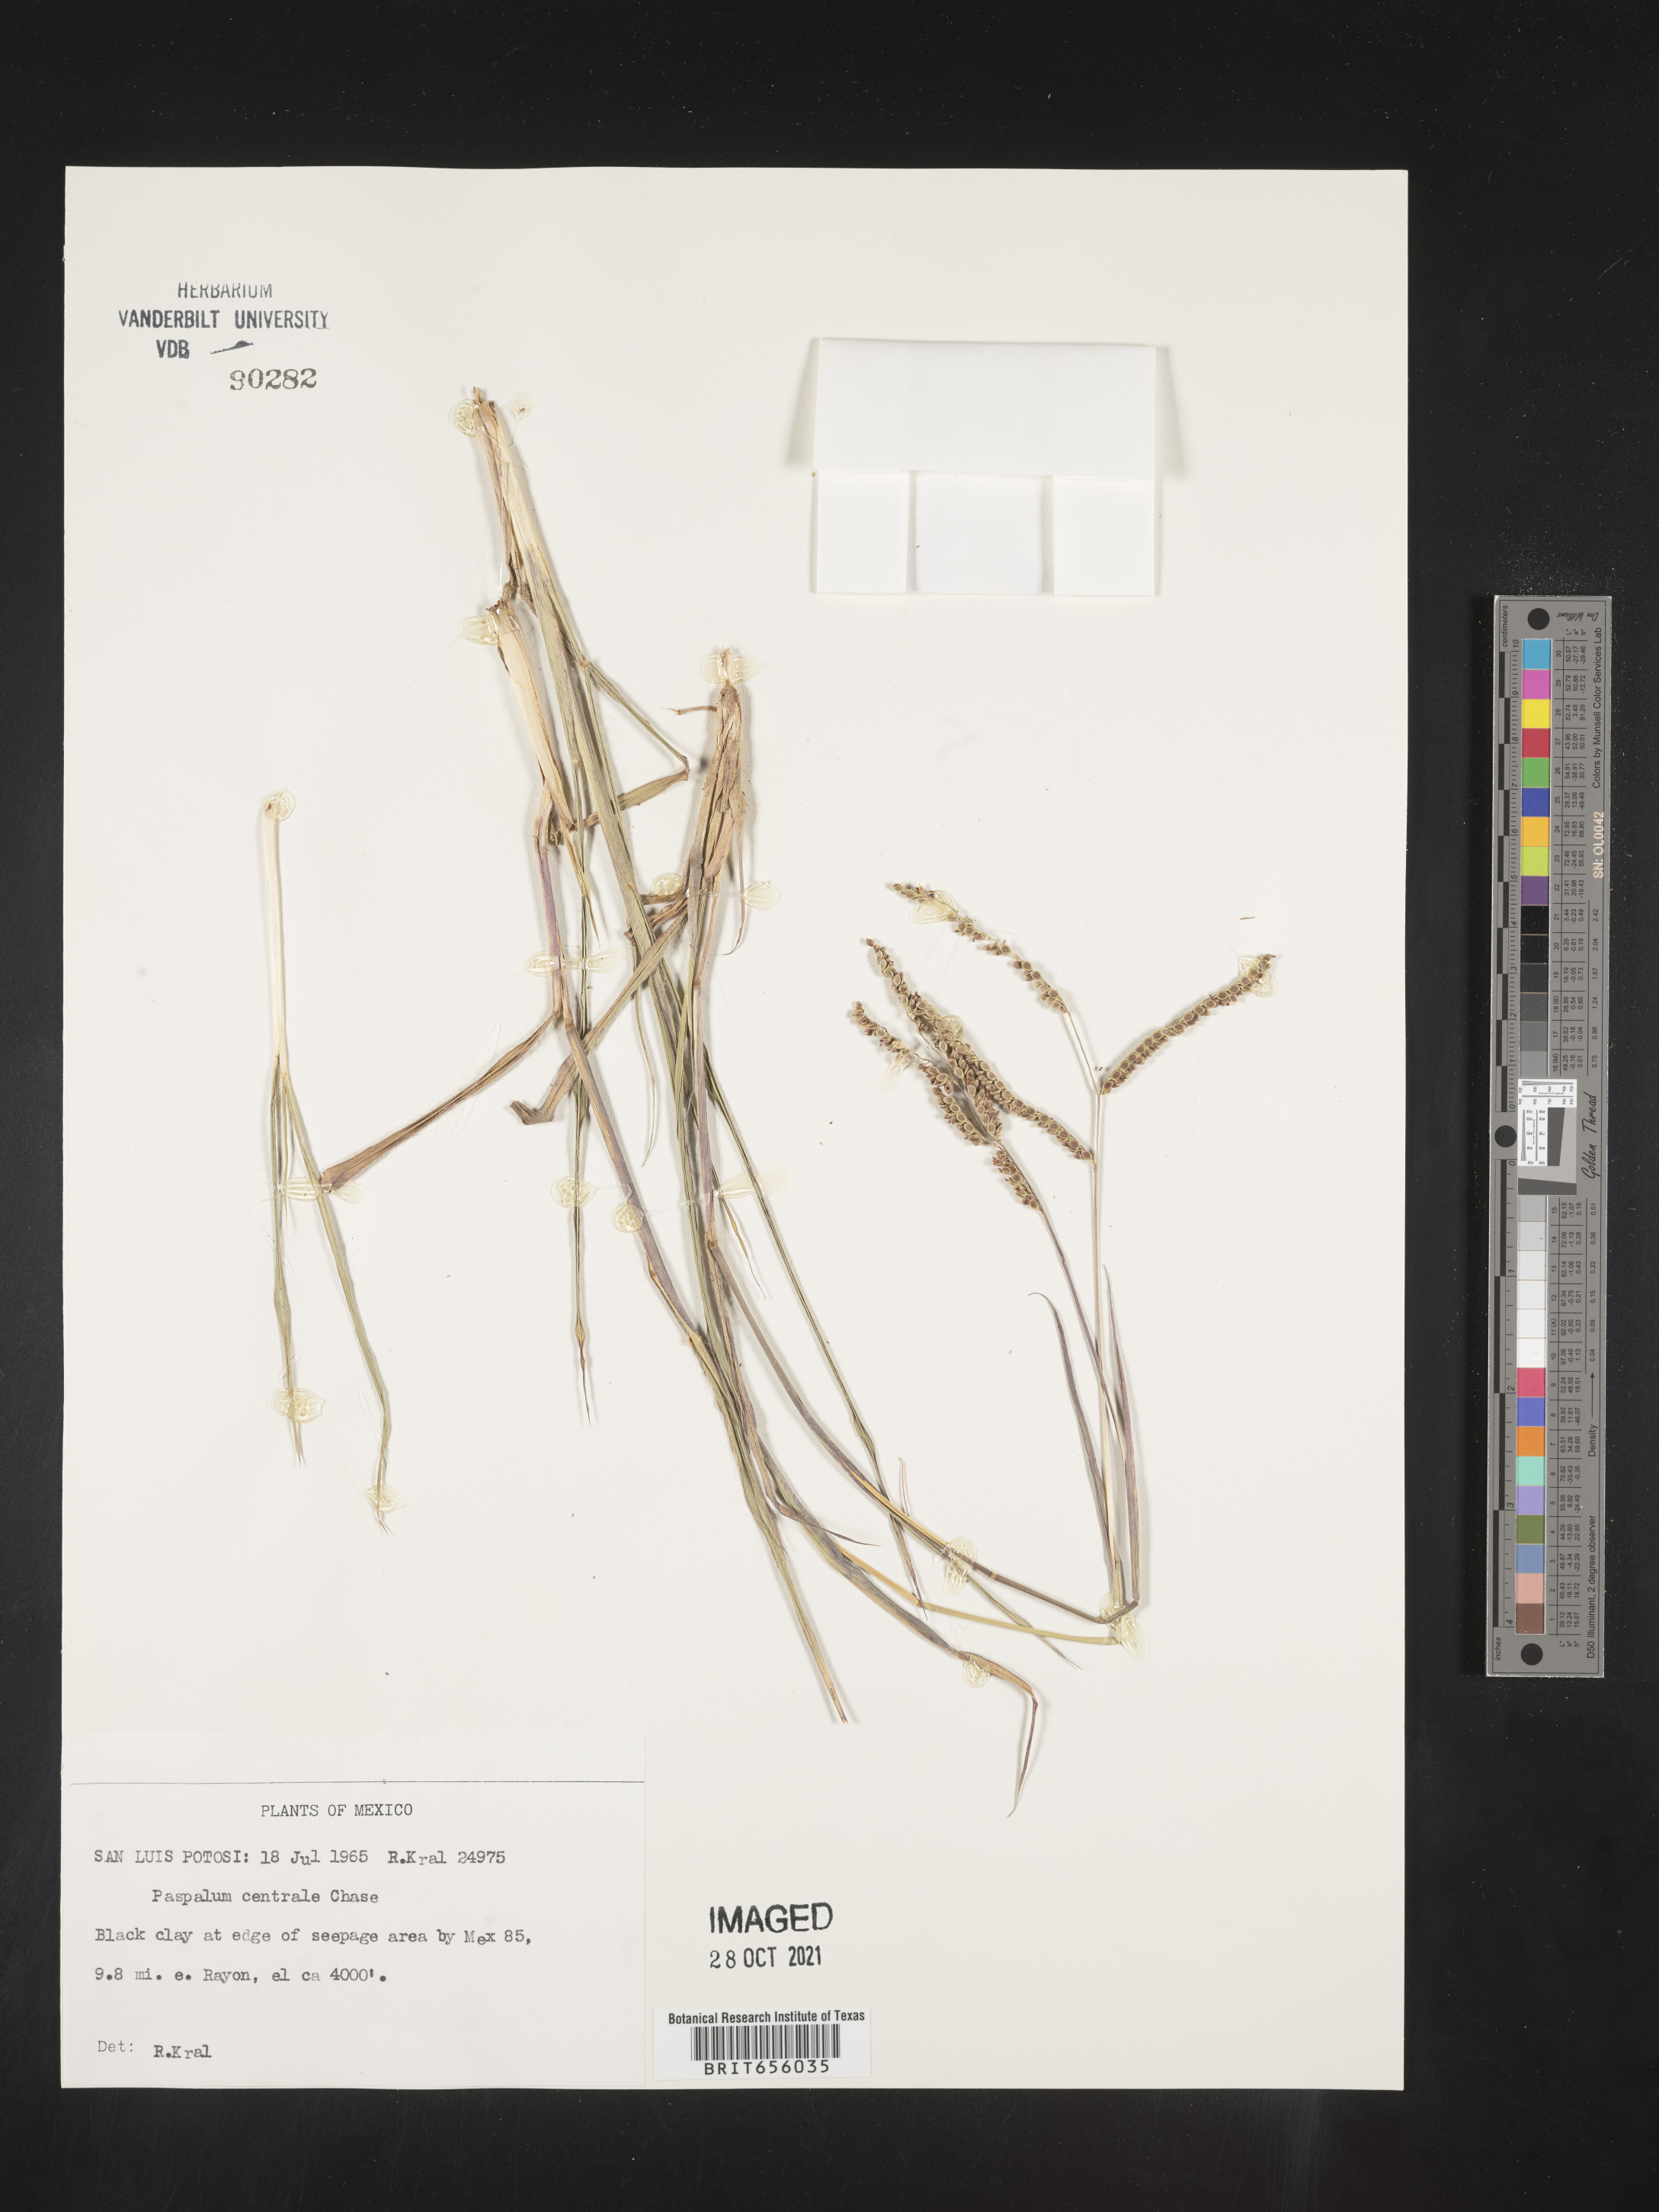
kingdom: Plantae
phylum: Tracheophyta
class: Liliopsida
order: Poales
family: Poaceae
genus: Paspalum
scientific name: Paspalum
